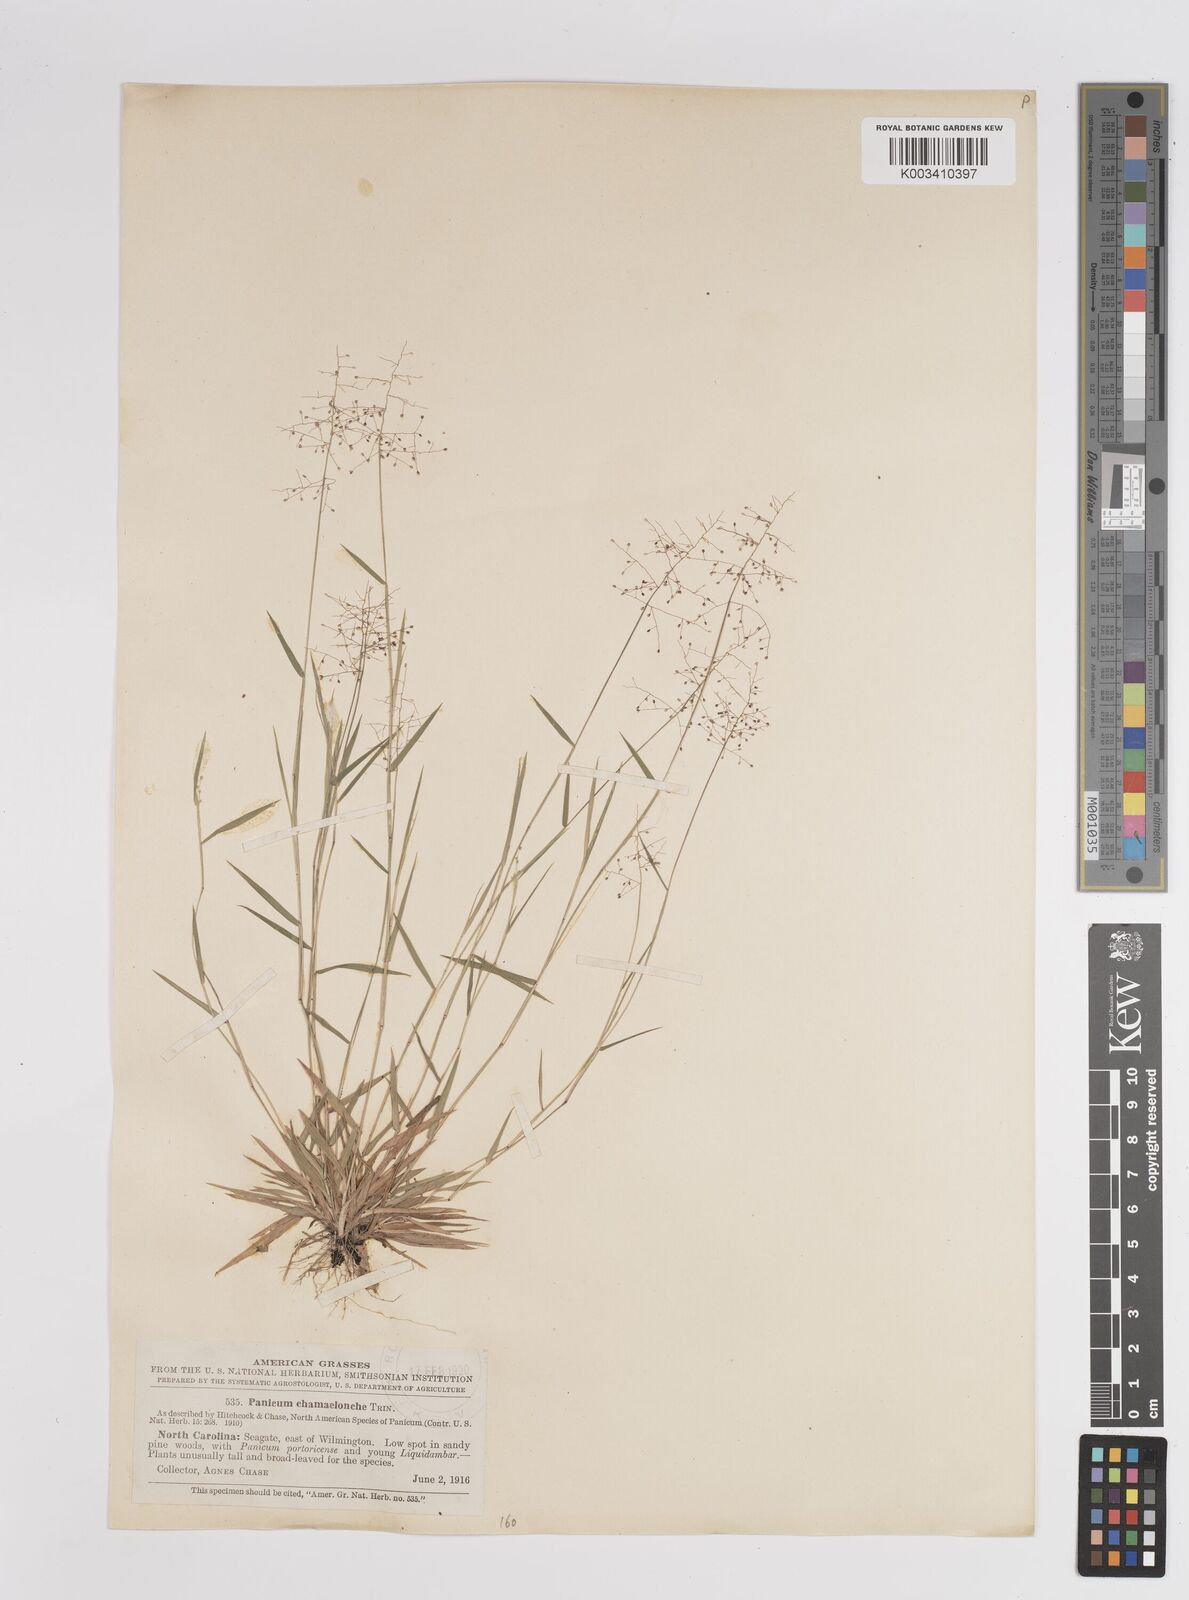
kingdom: Plantae
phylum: Tracheophyta
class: Liliopsida
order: Poales
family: Poaceae
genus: Dichanthelium
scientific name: Dichanthelium chamaelonche
